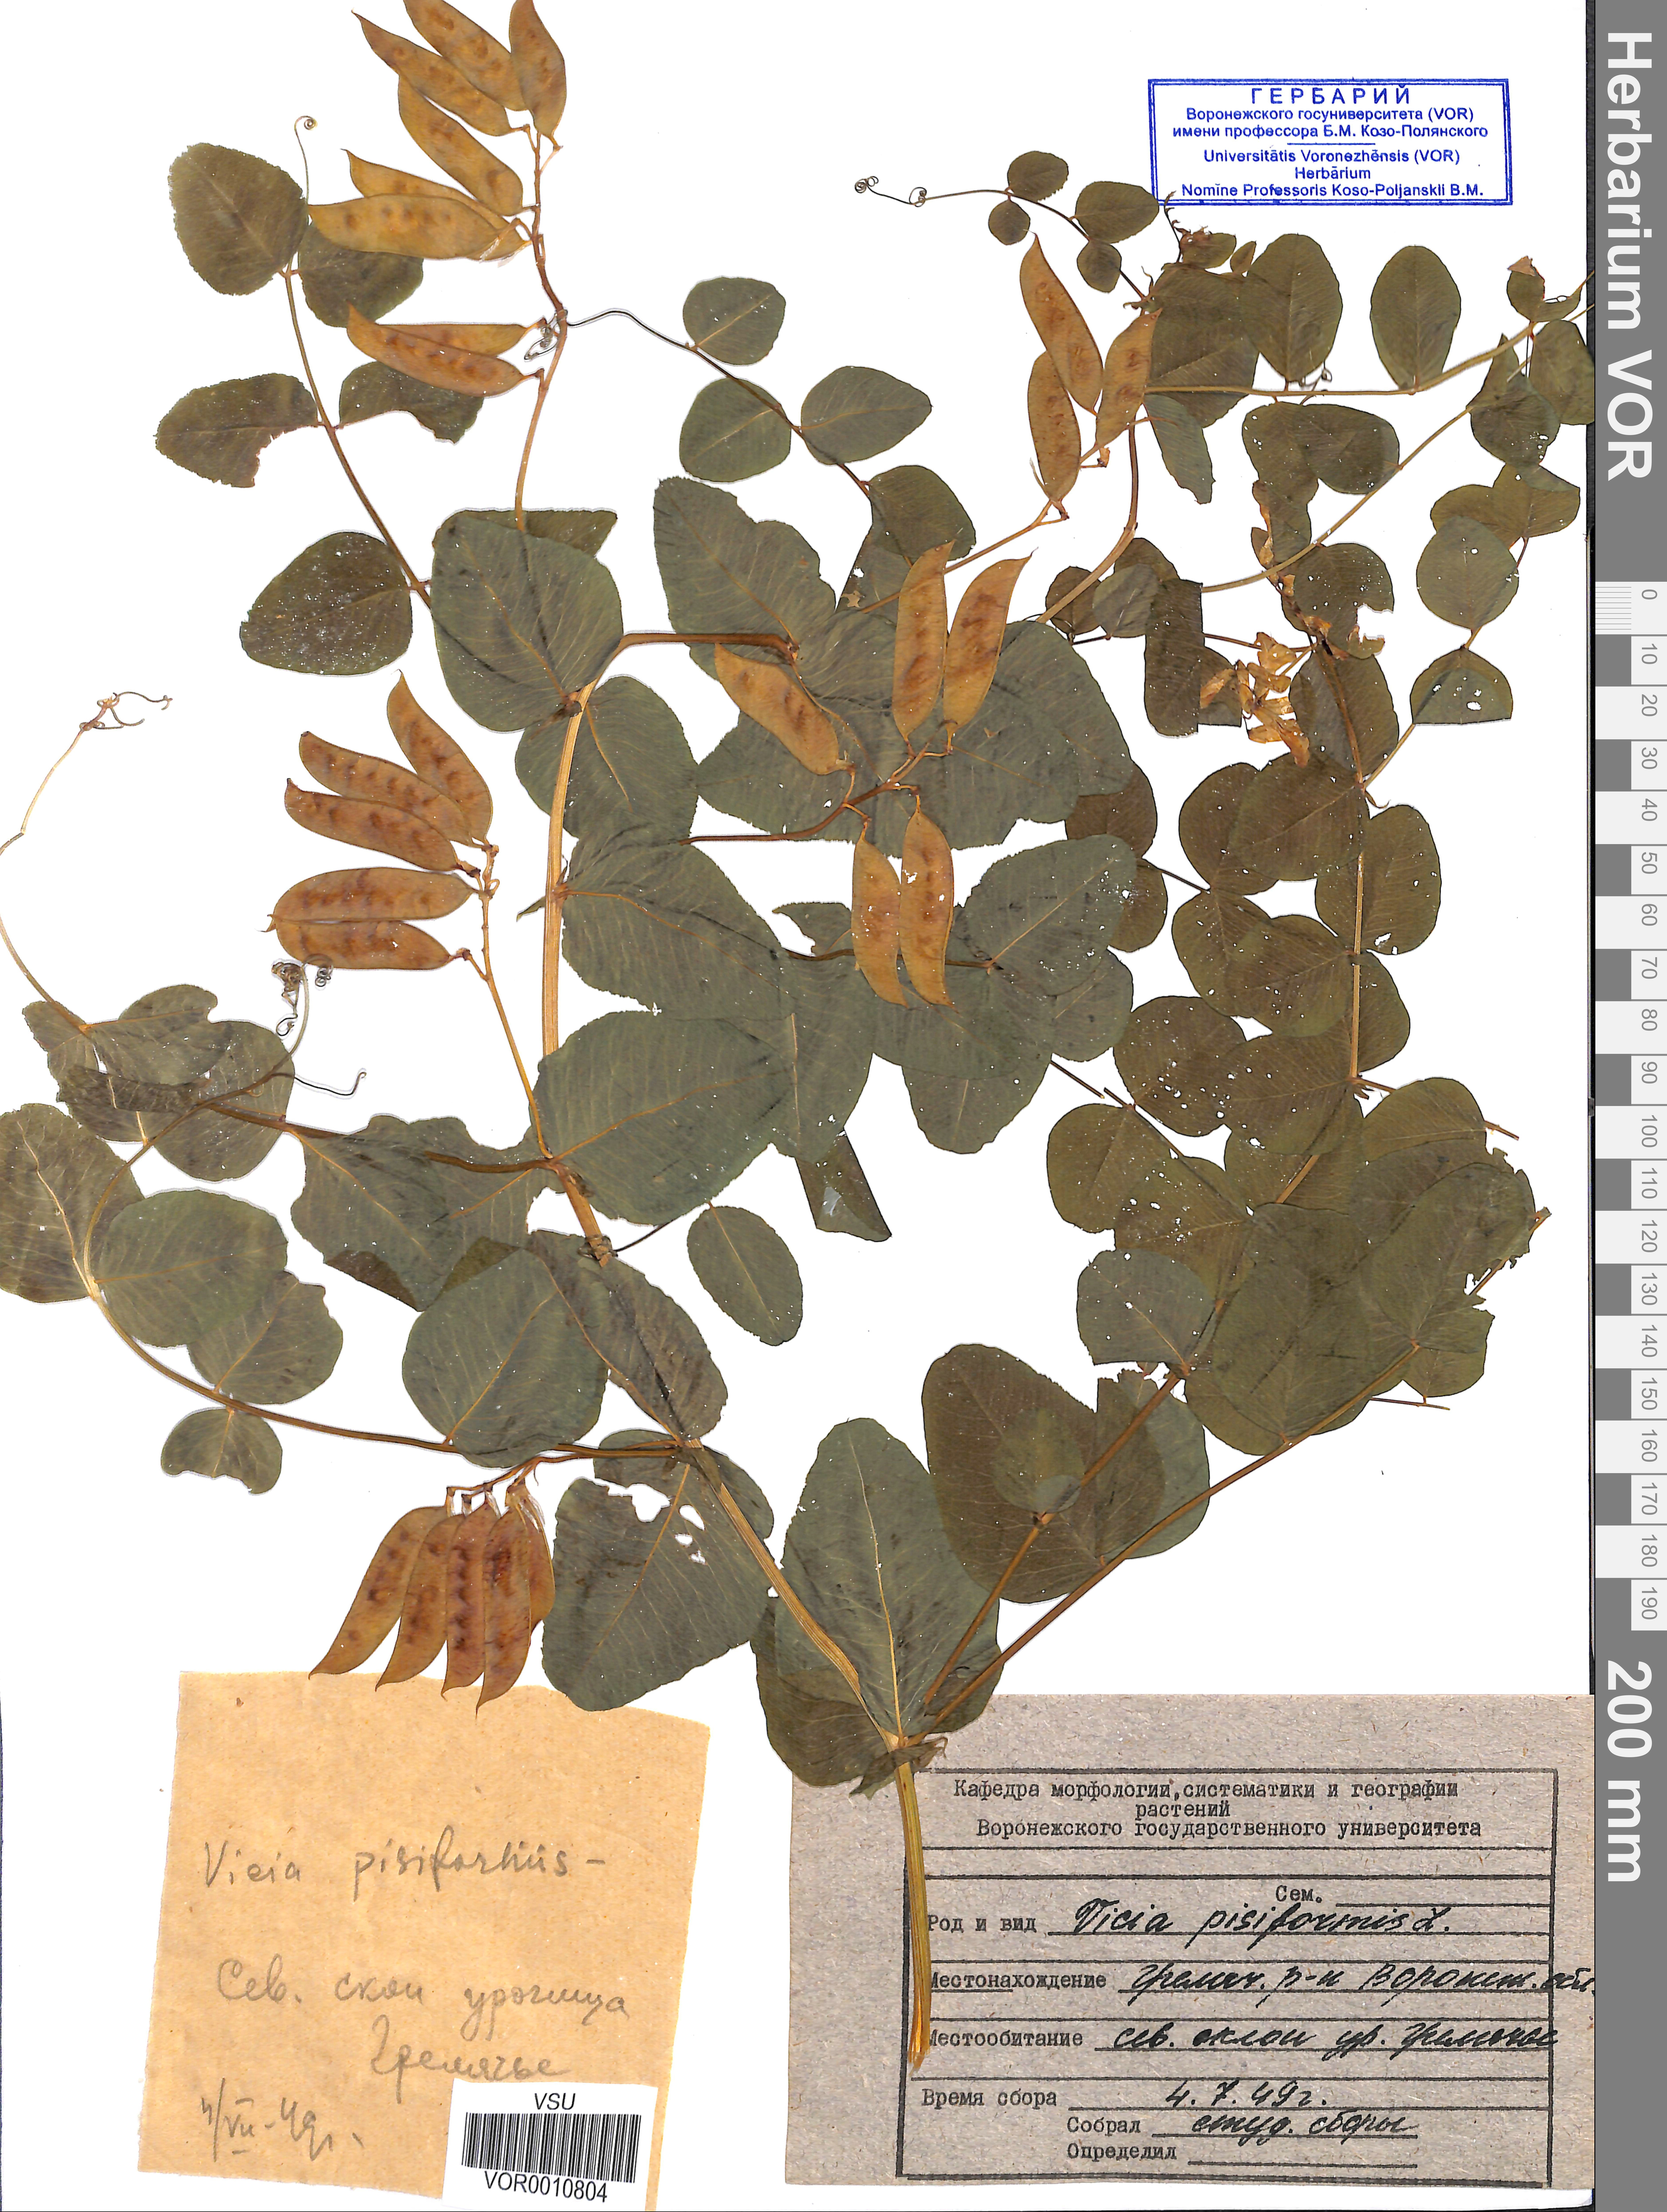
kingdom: Plantae
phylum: Tracheophyta
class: Magnoliopsida
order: Fabales
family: Fabaceae
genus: Vicia
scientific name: Vicia pisiformis
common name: Pale-flower vetch
